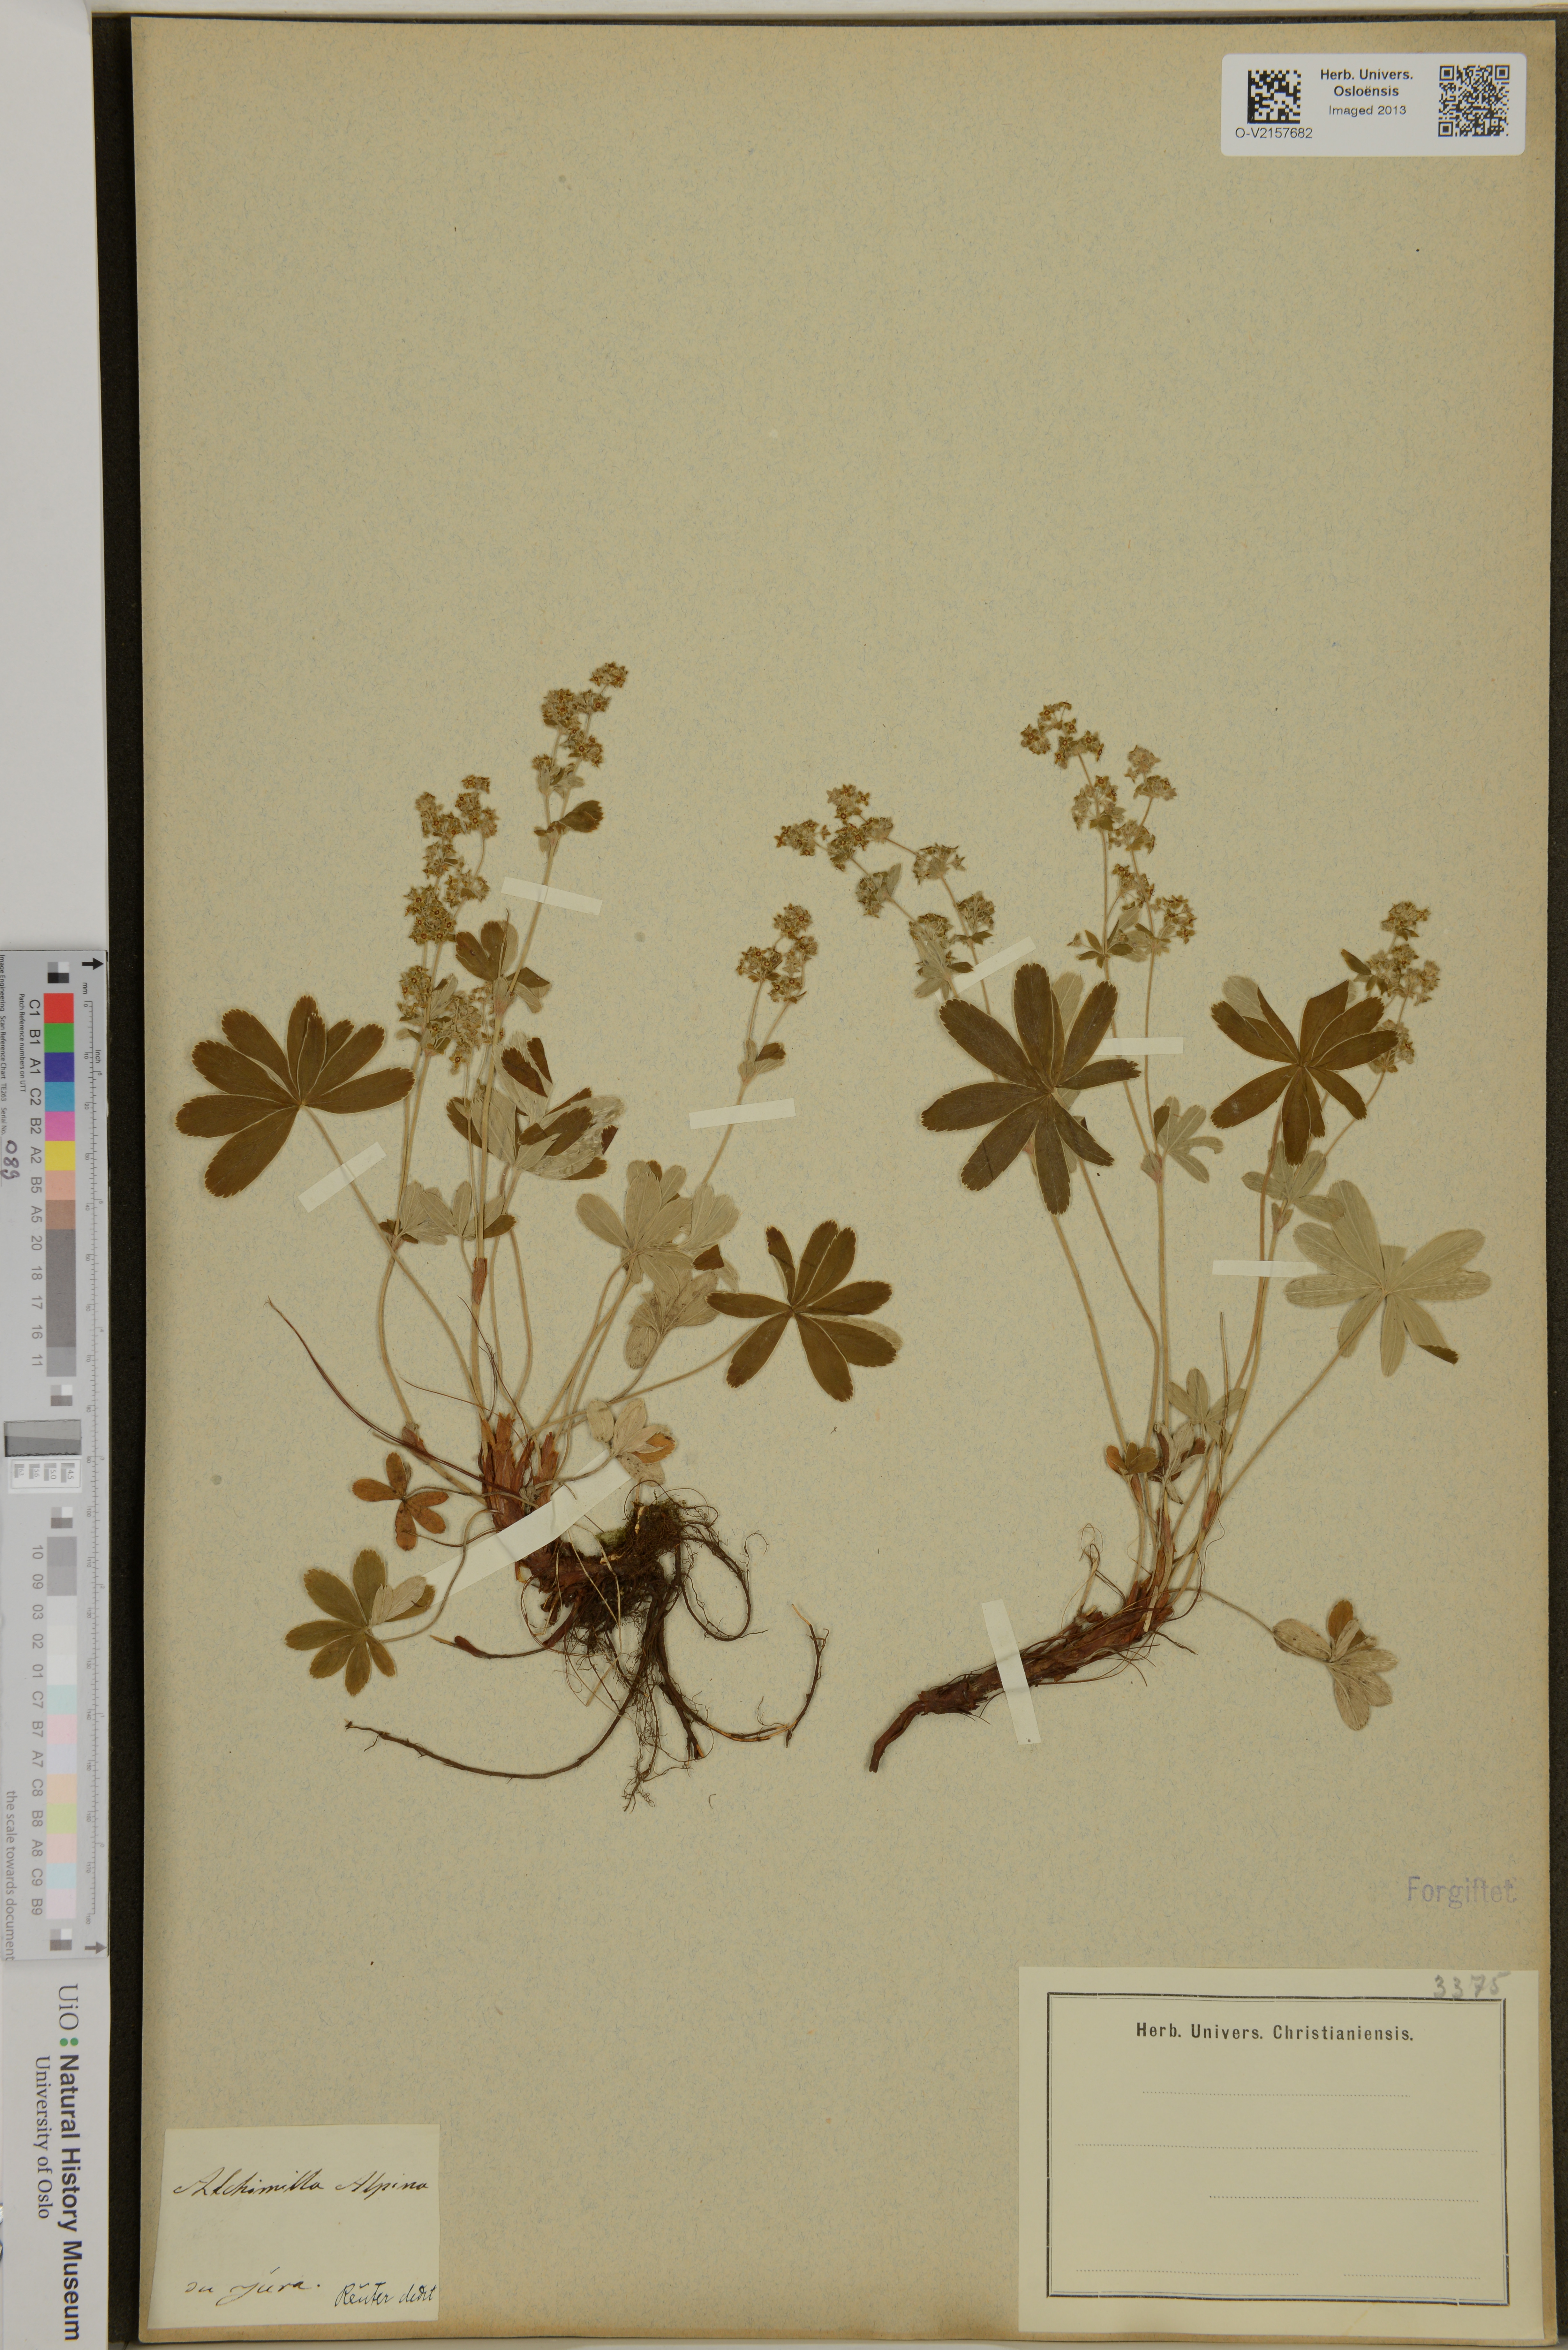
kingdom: Plantae
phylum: Tracheophyta
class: Magnoliopsida
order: Rosales
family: Rosaceae
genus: Alchemilla
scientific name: Alchemilla alpina
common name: Alpine lady's-mantle
